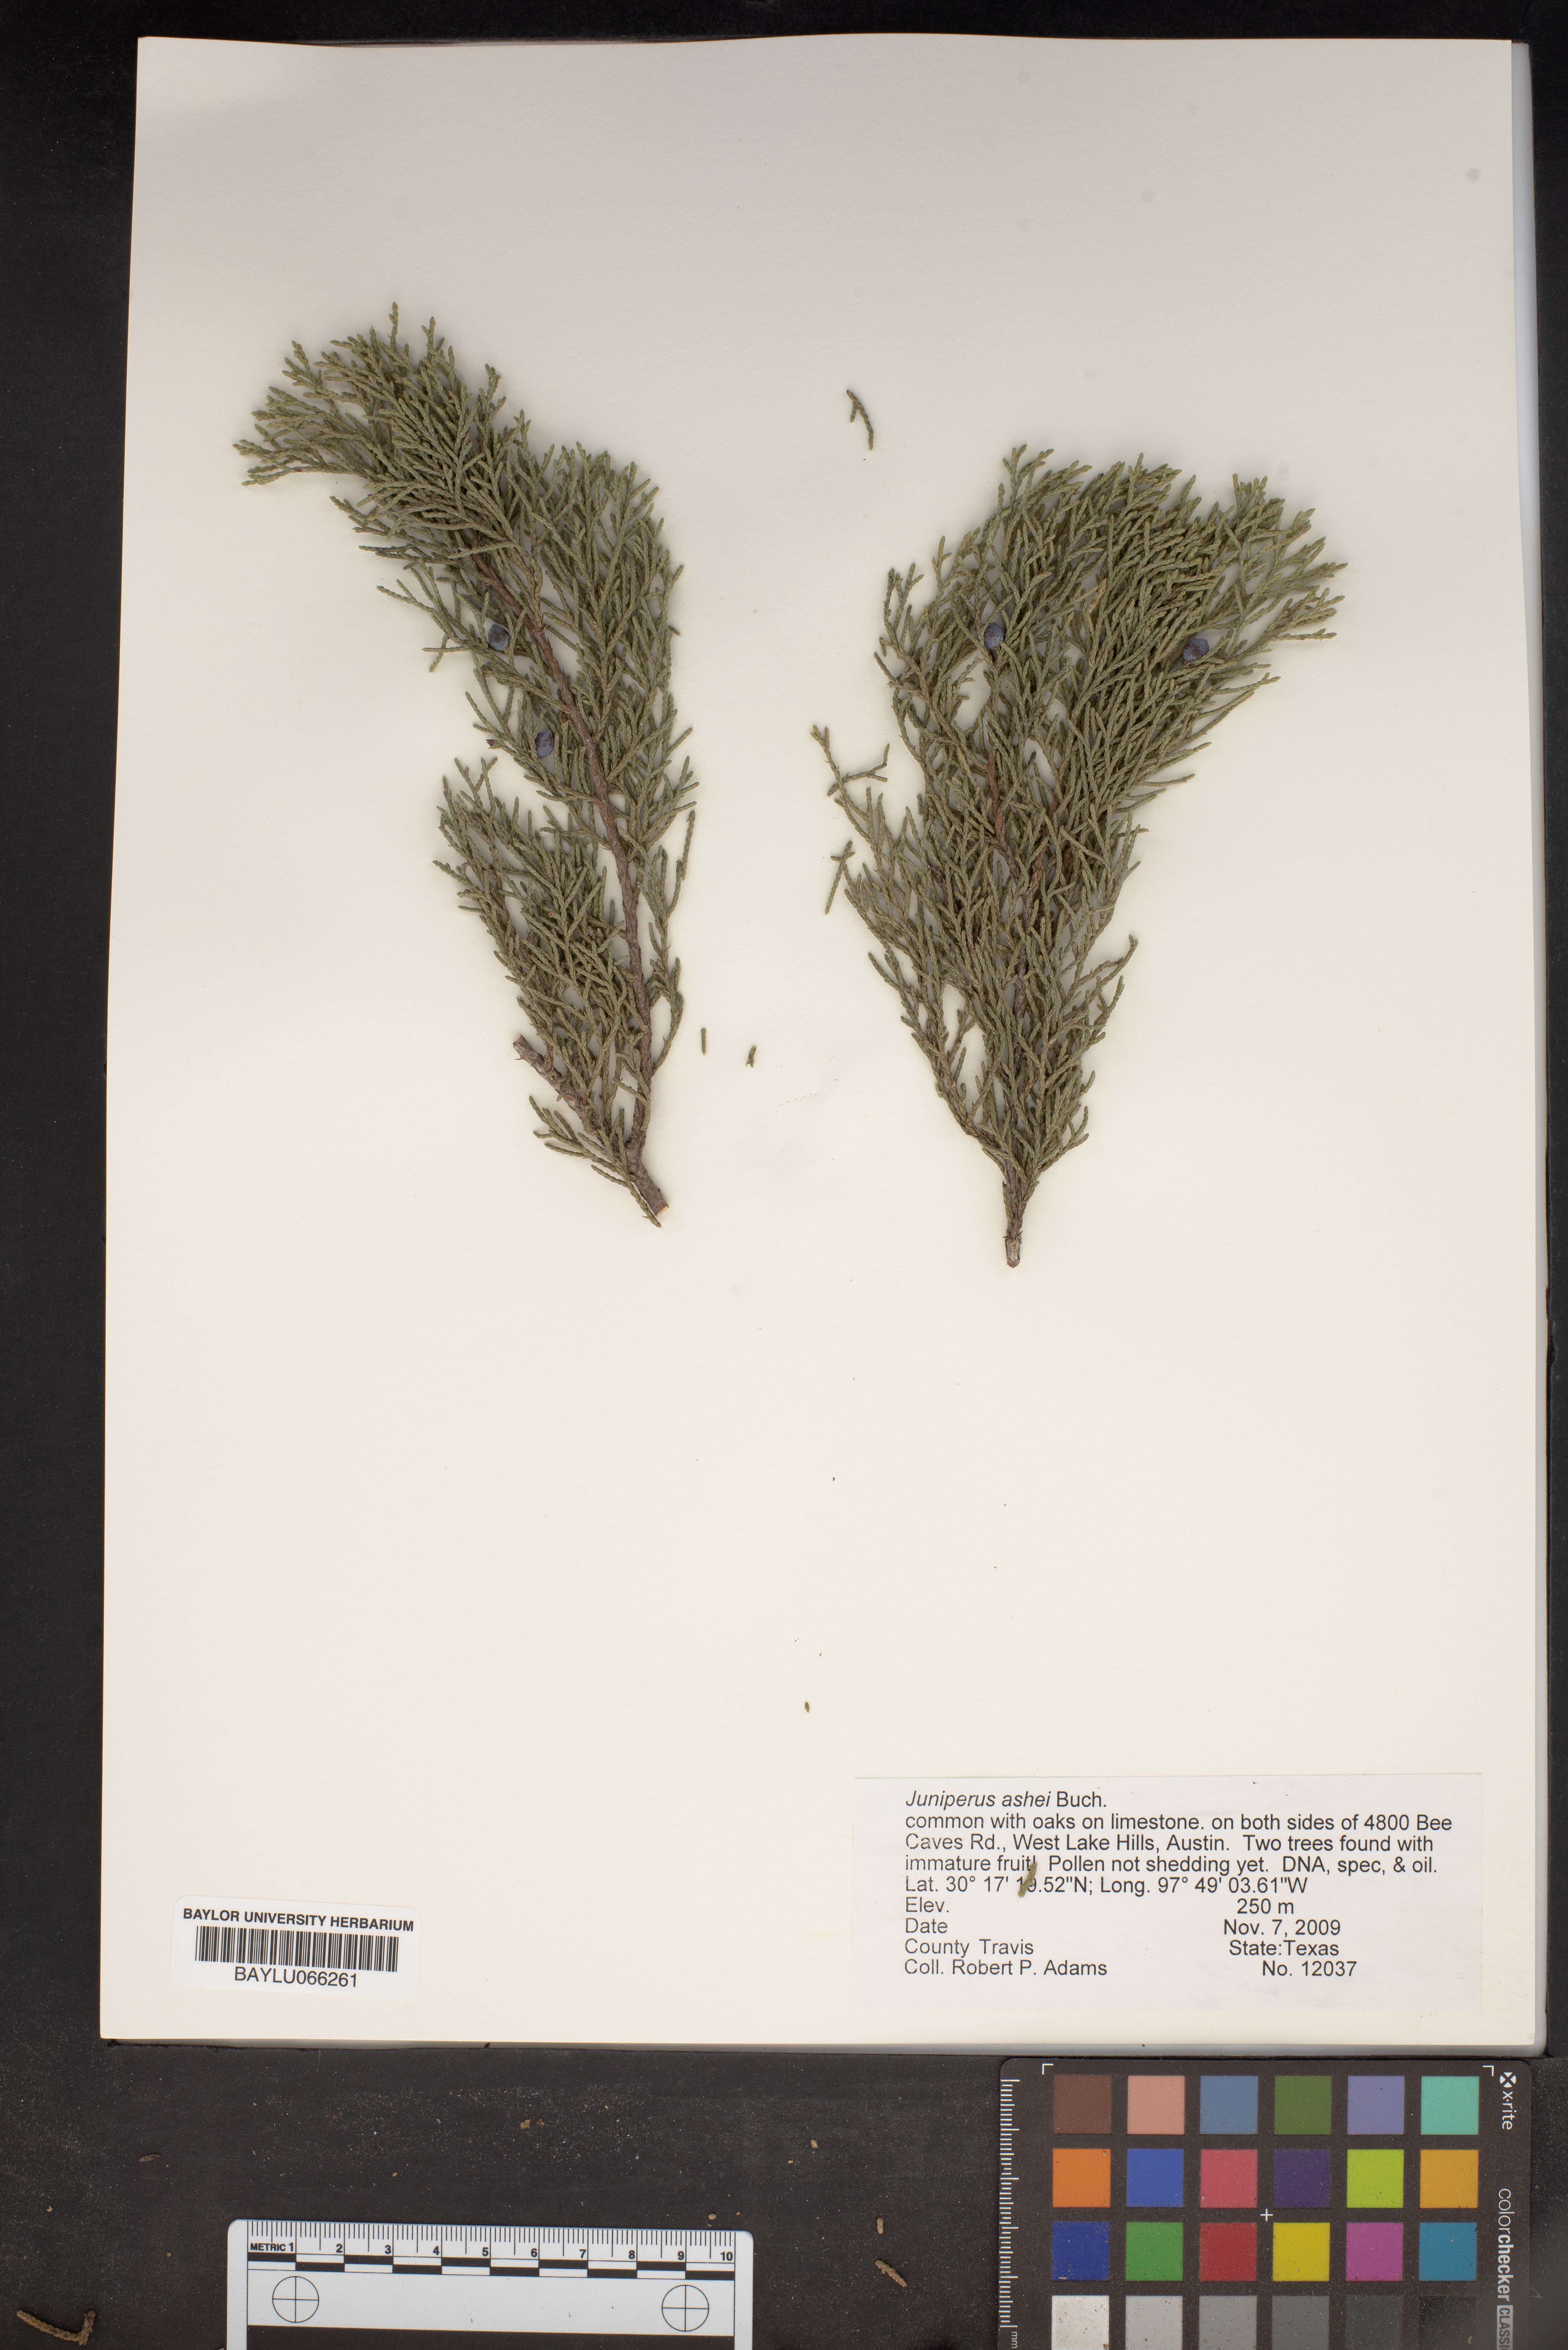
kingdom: Plantae
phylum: Tracheophyta
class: Pinopsida
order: Pinales
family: Cupressaceae
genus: Juniperus
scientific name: Juniperus ashei
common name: Mexican juniper
